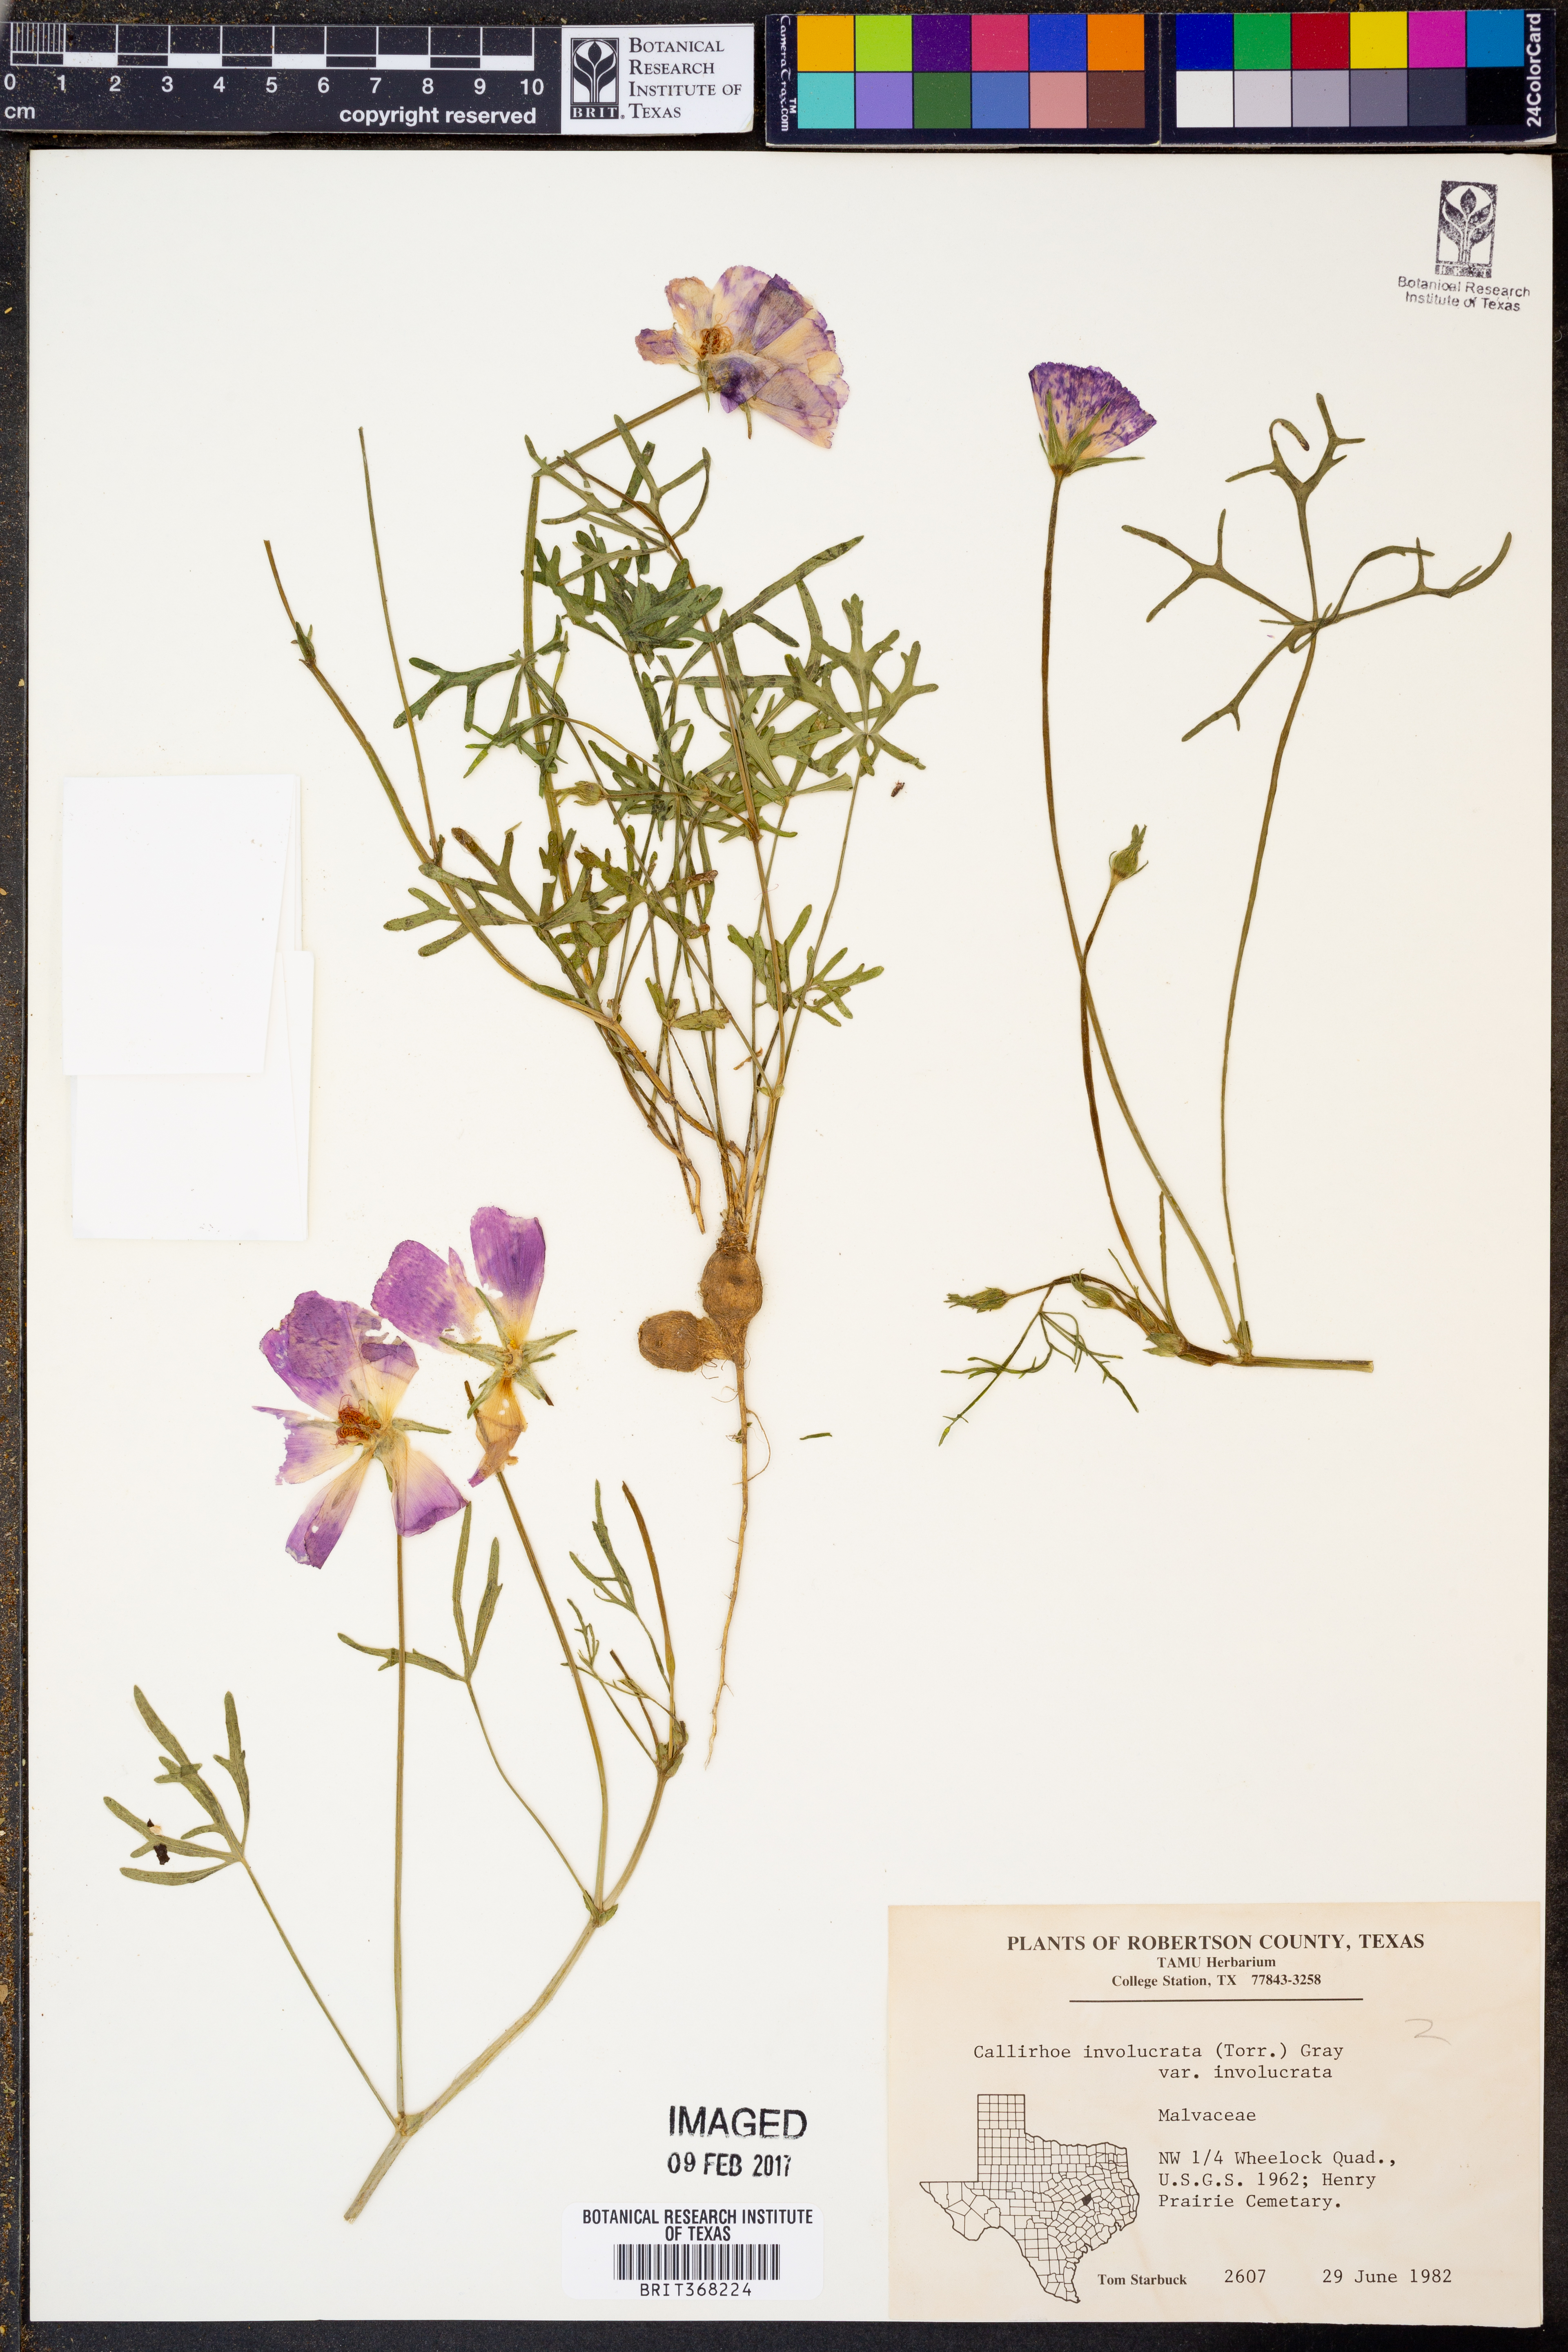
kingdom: Plantae
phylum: Tracheophyta
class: Magnoliopsida
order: Malvales
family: Malvaceae
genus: Callirhoe
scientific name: Callirhoe involucrata
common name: Purple poppy-mallow
